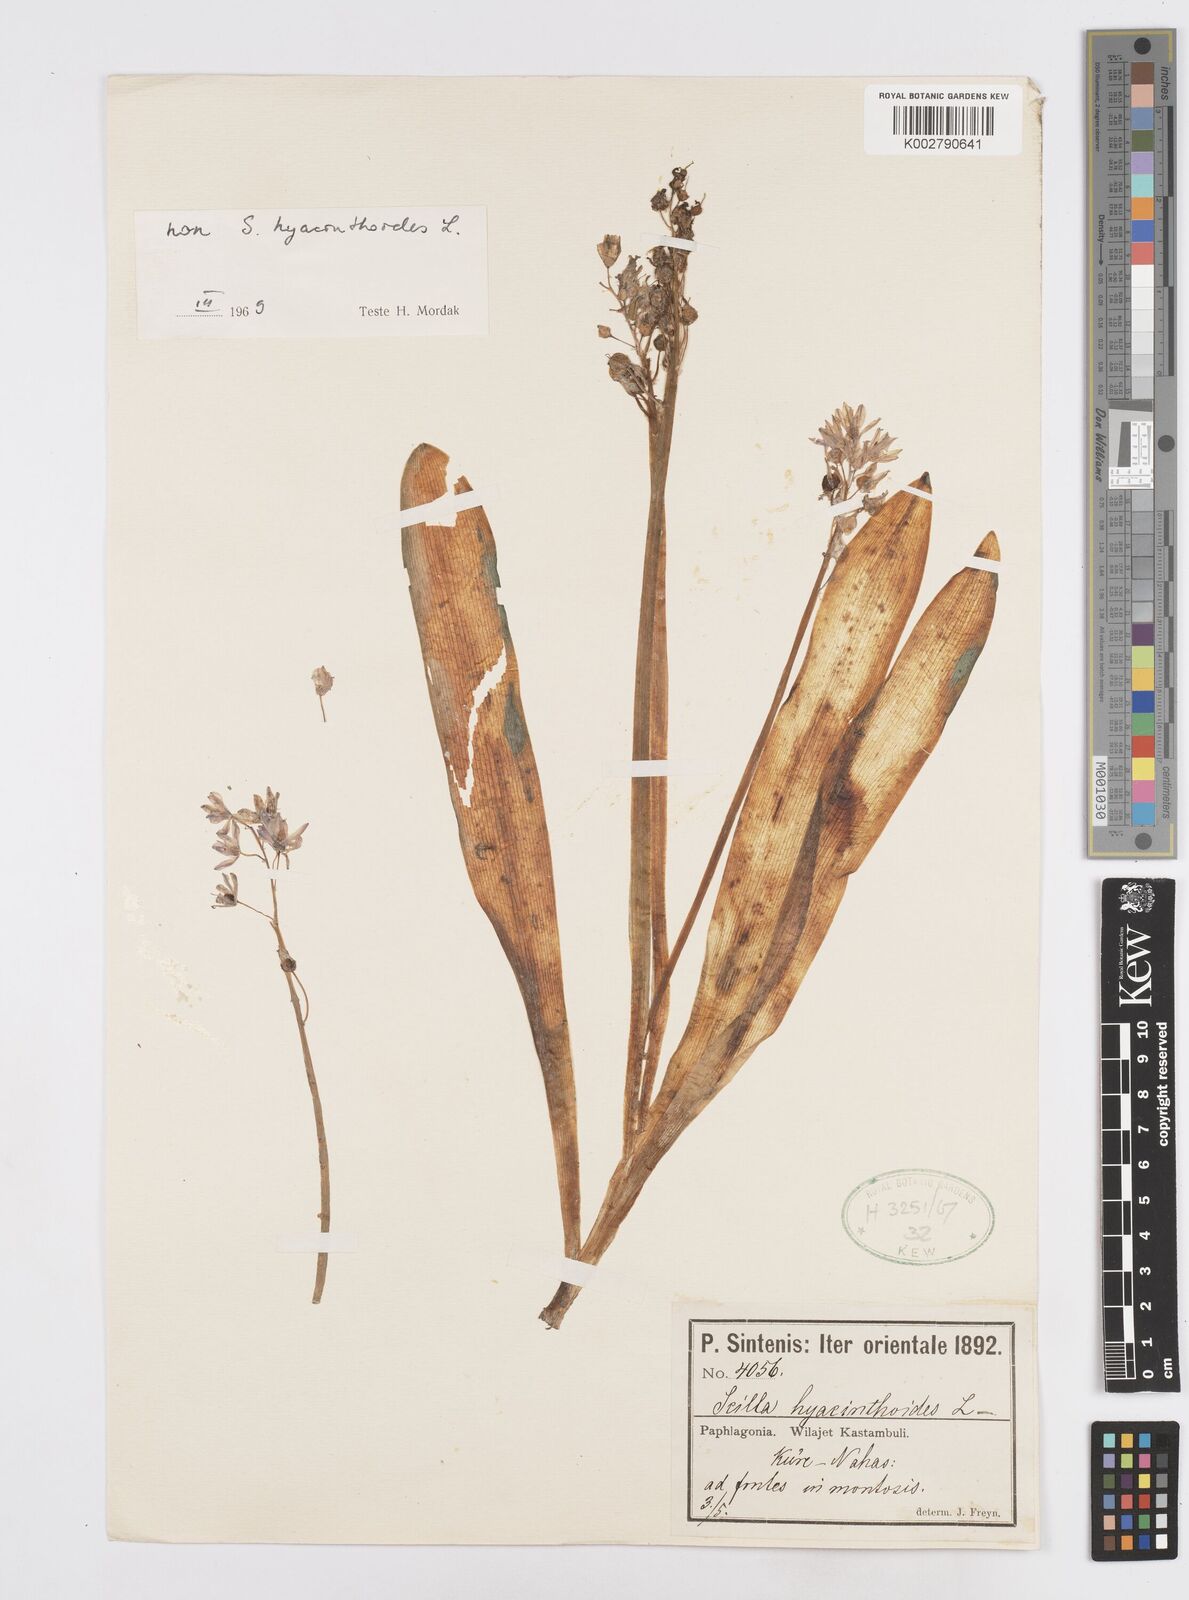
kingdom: Plantae
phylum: Tracheophyta
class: Liliopsida
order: Asparagales
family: Asparagaceae
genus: Scilla
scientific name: Scilla bithynica
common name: Turkish squill
